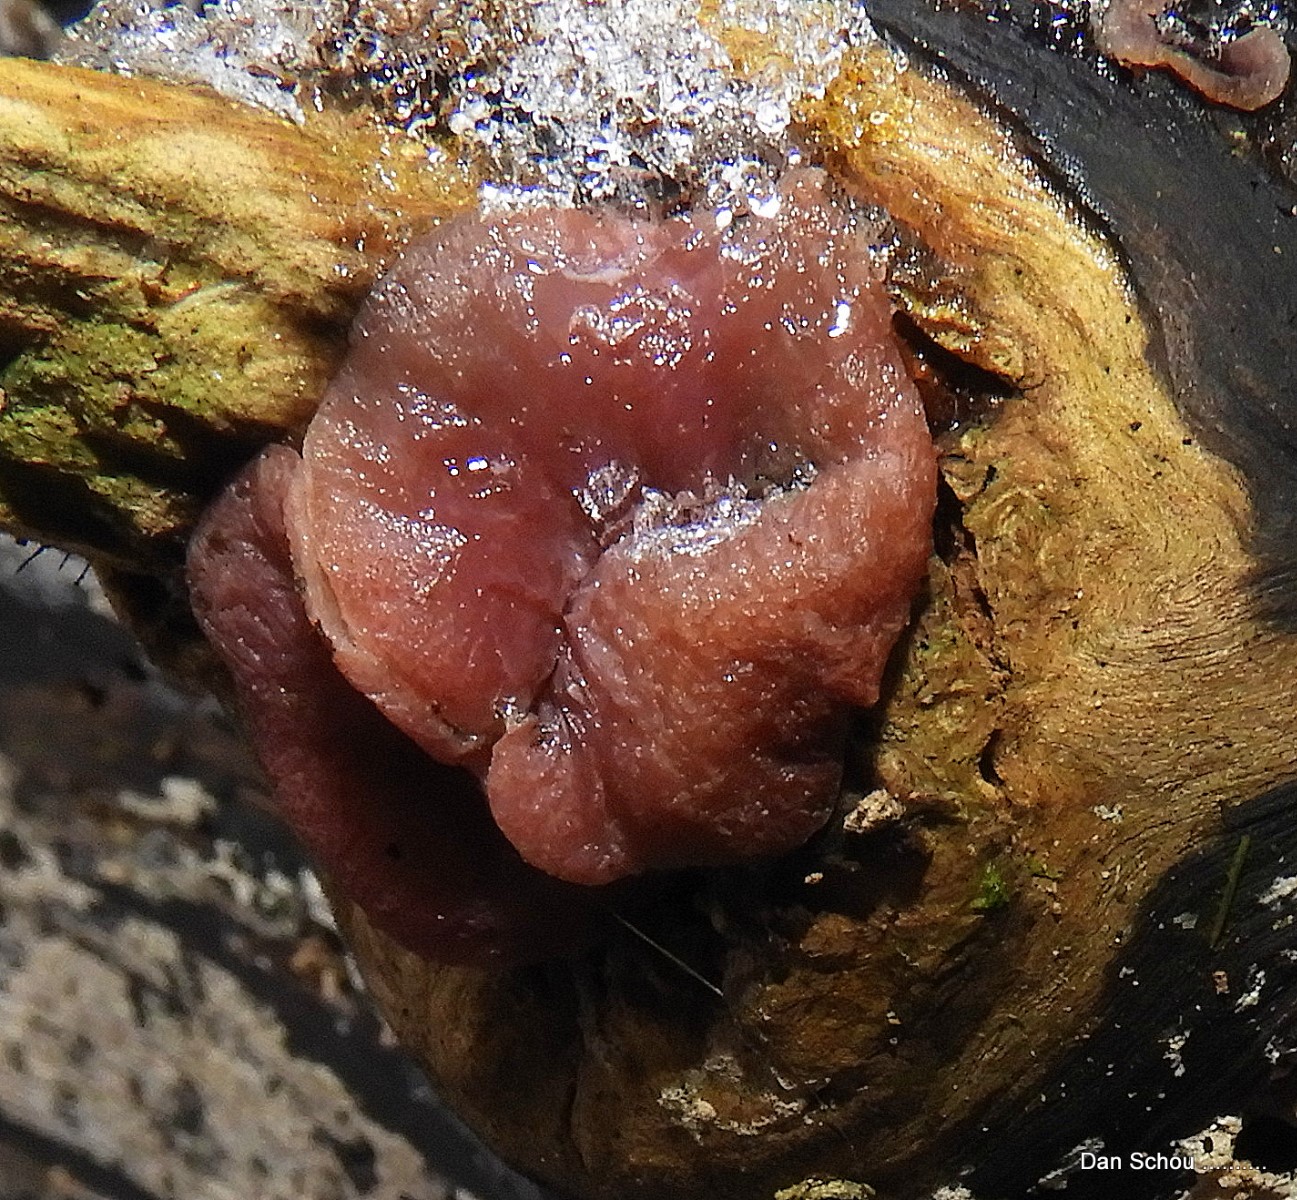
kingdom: Fungi
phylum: Ascomycota
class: Leotiomycetes
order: Helotiales
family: Gelatinodiscaceae
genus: Ascocoryne
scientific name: Ascocoryne
